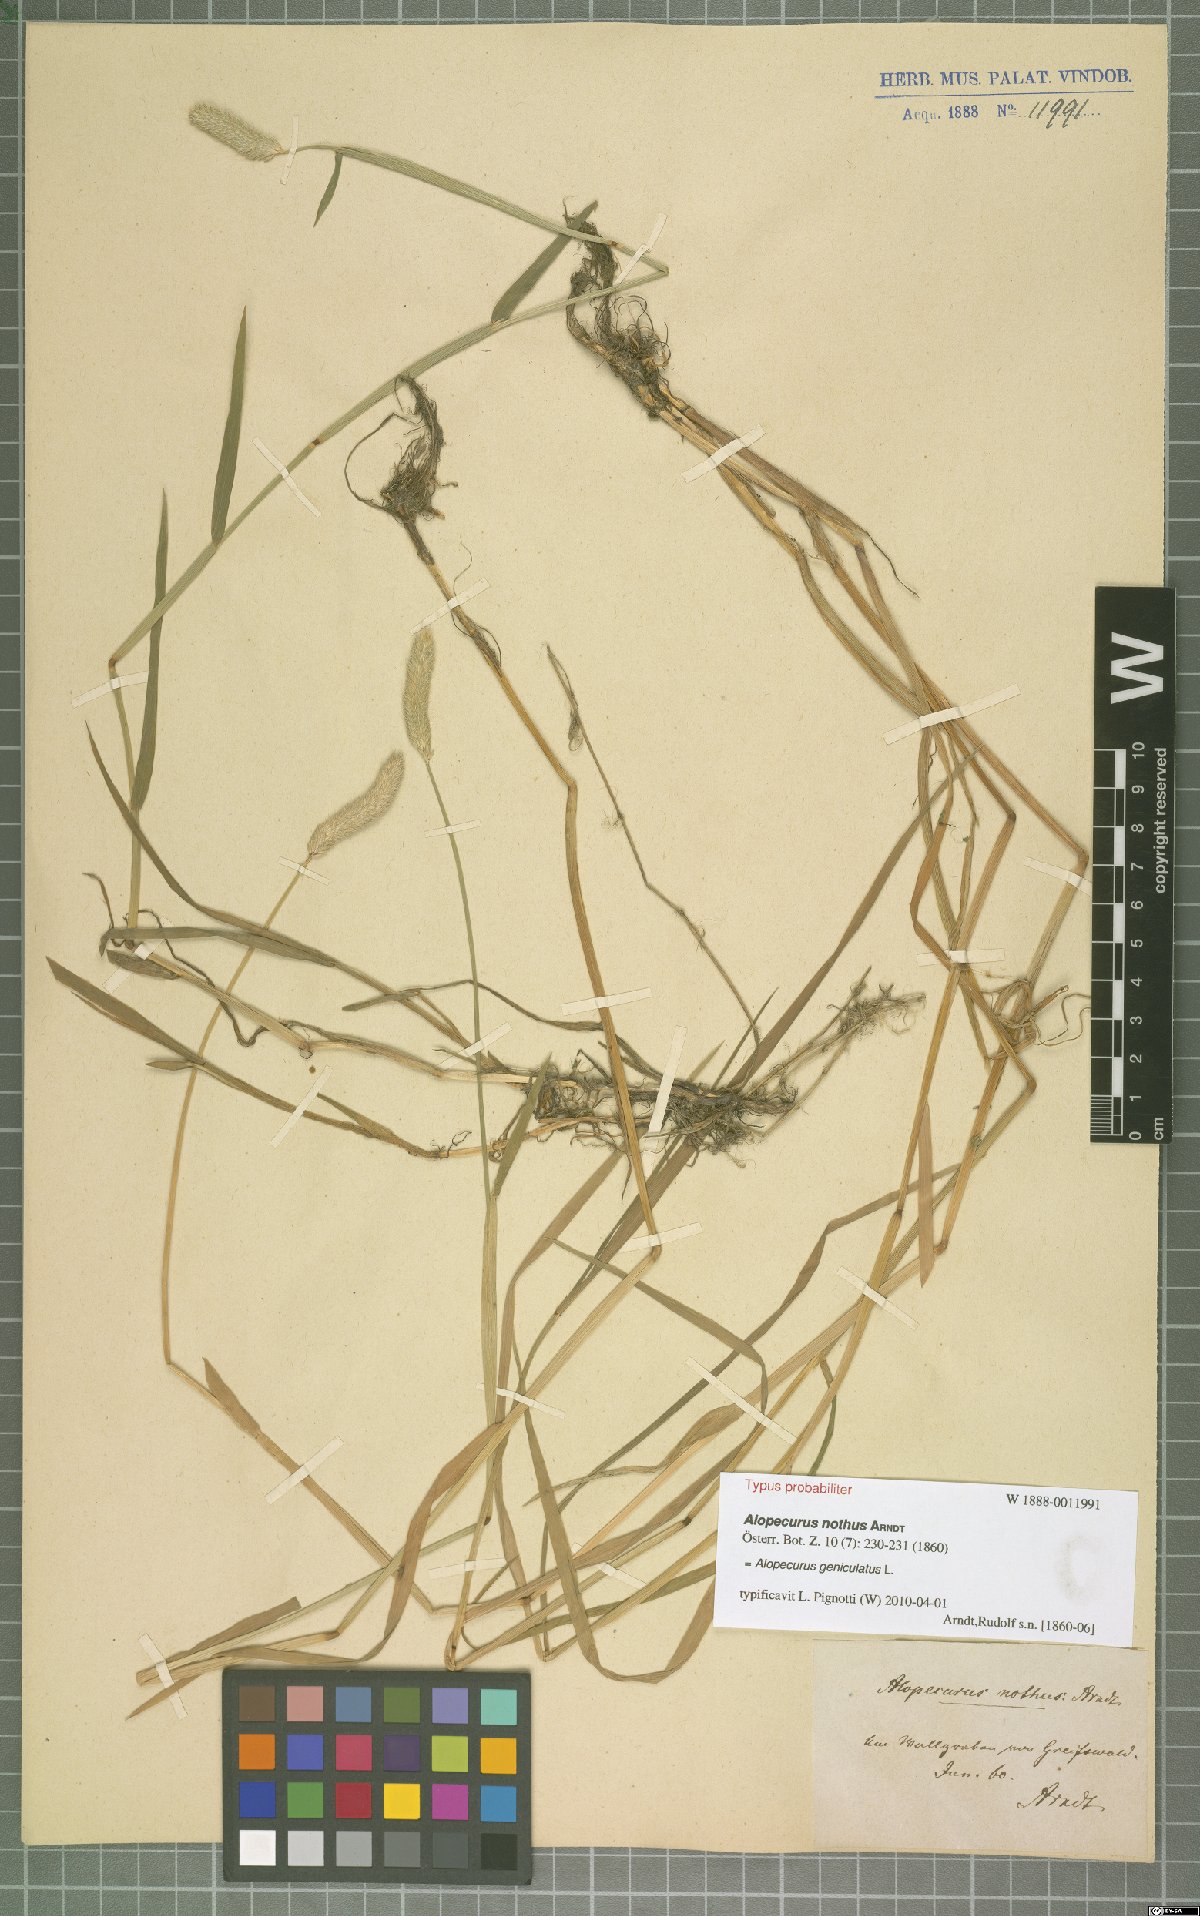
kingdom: Plantae
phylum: Tracheophyta
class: Liliopsida
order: Poales
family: Poaceae
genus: Alopecurus
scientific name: Alopecurus geniculatus
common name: Water foxtail
